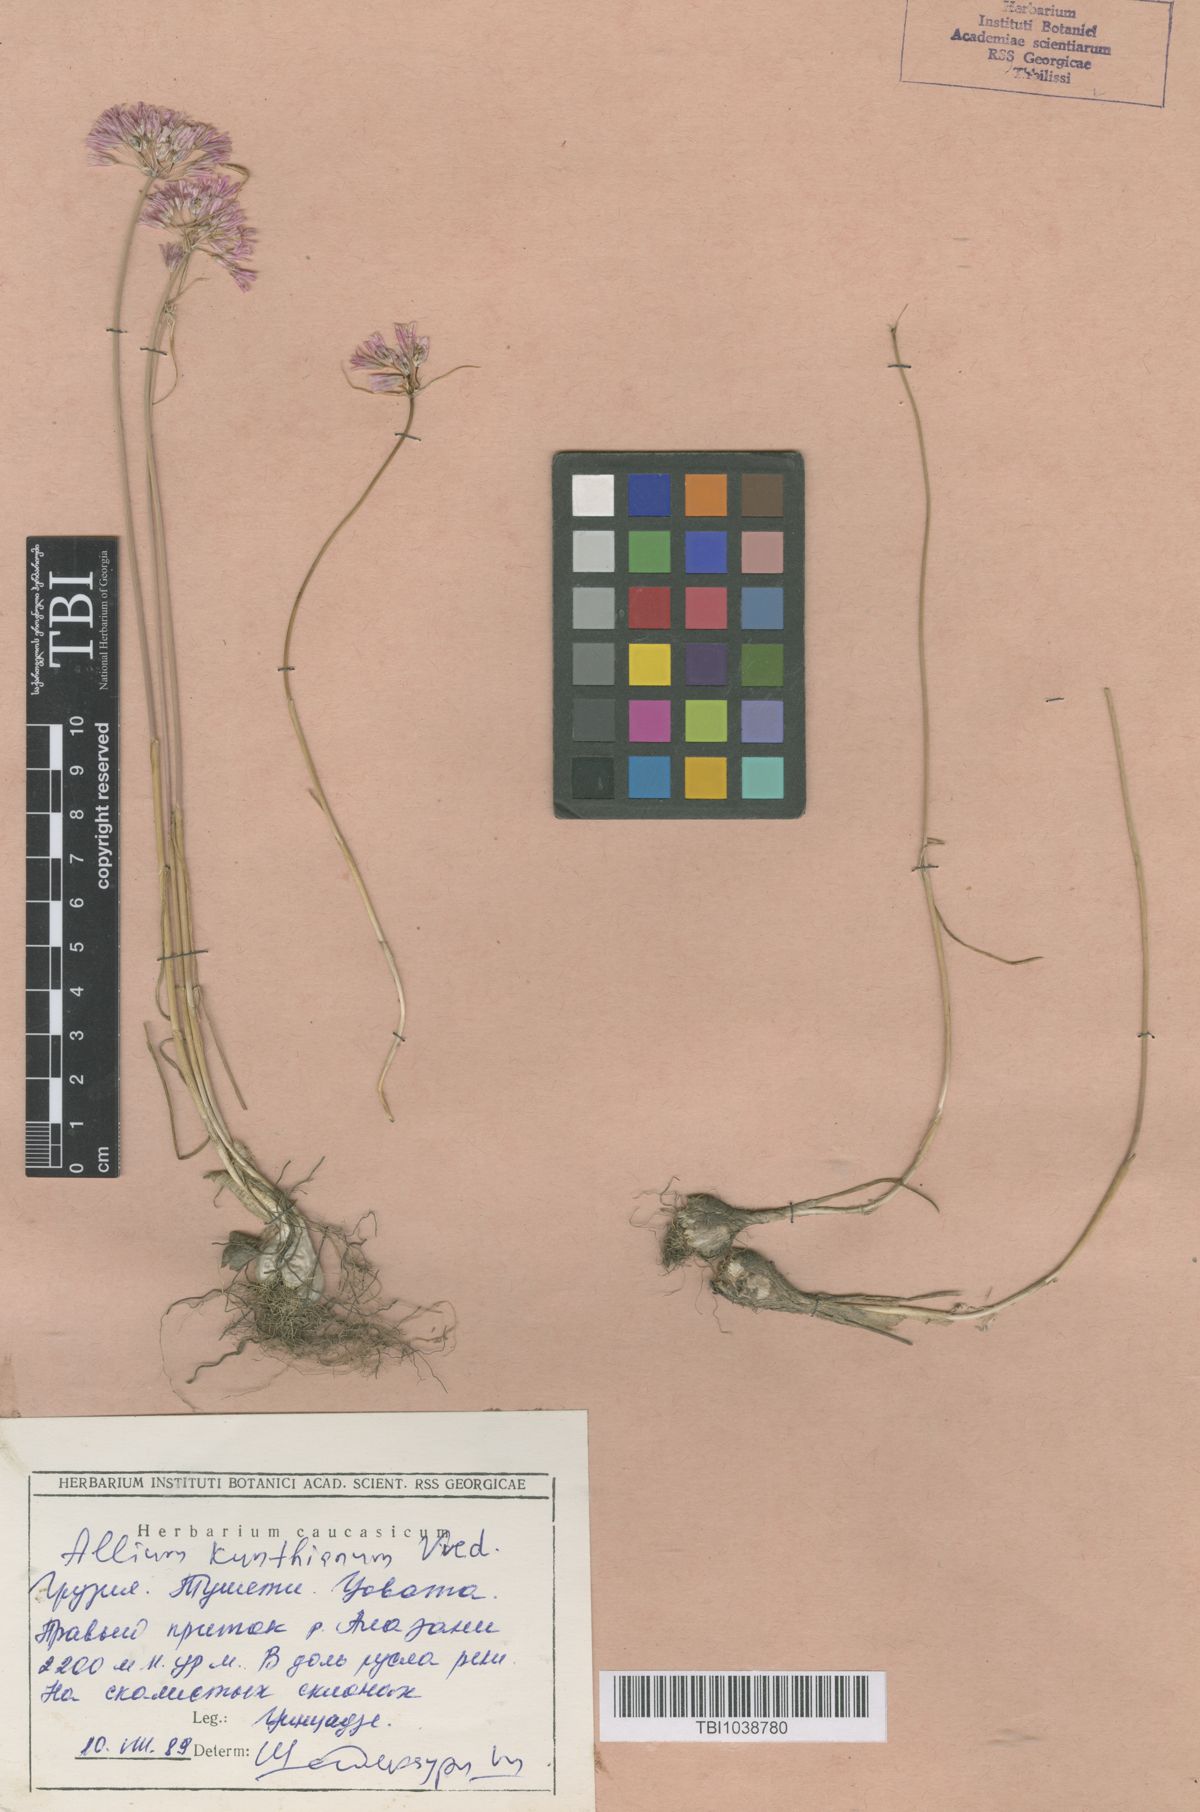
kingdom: Plantae
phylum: Tracheophyta
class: Liliopsida
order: Asparagales
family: Amaryllidaceae
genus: Allium
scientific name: Allium kunthianum
